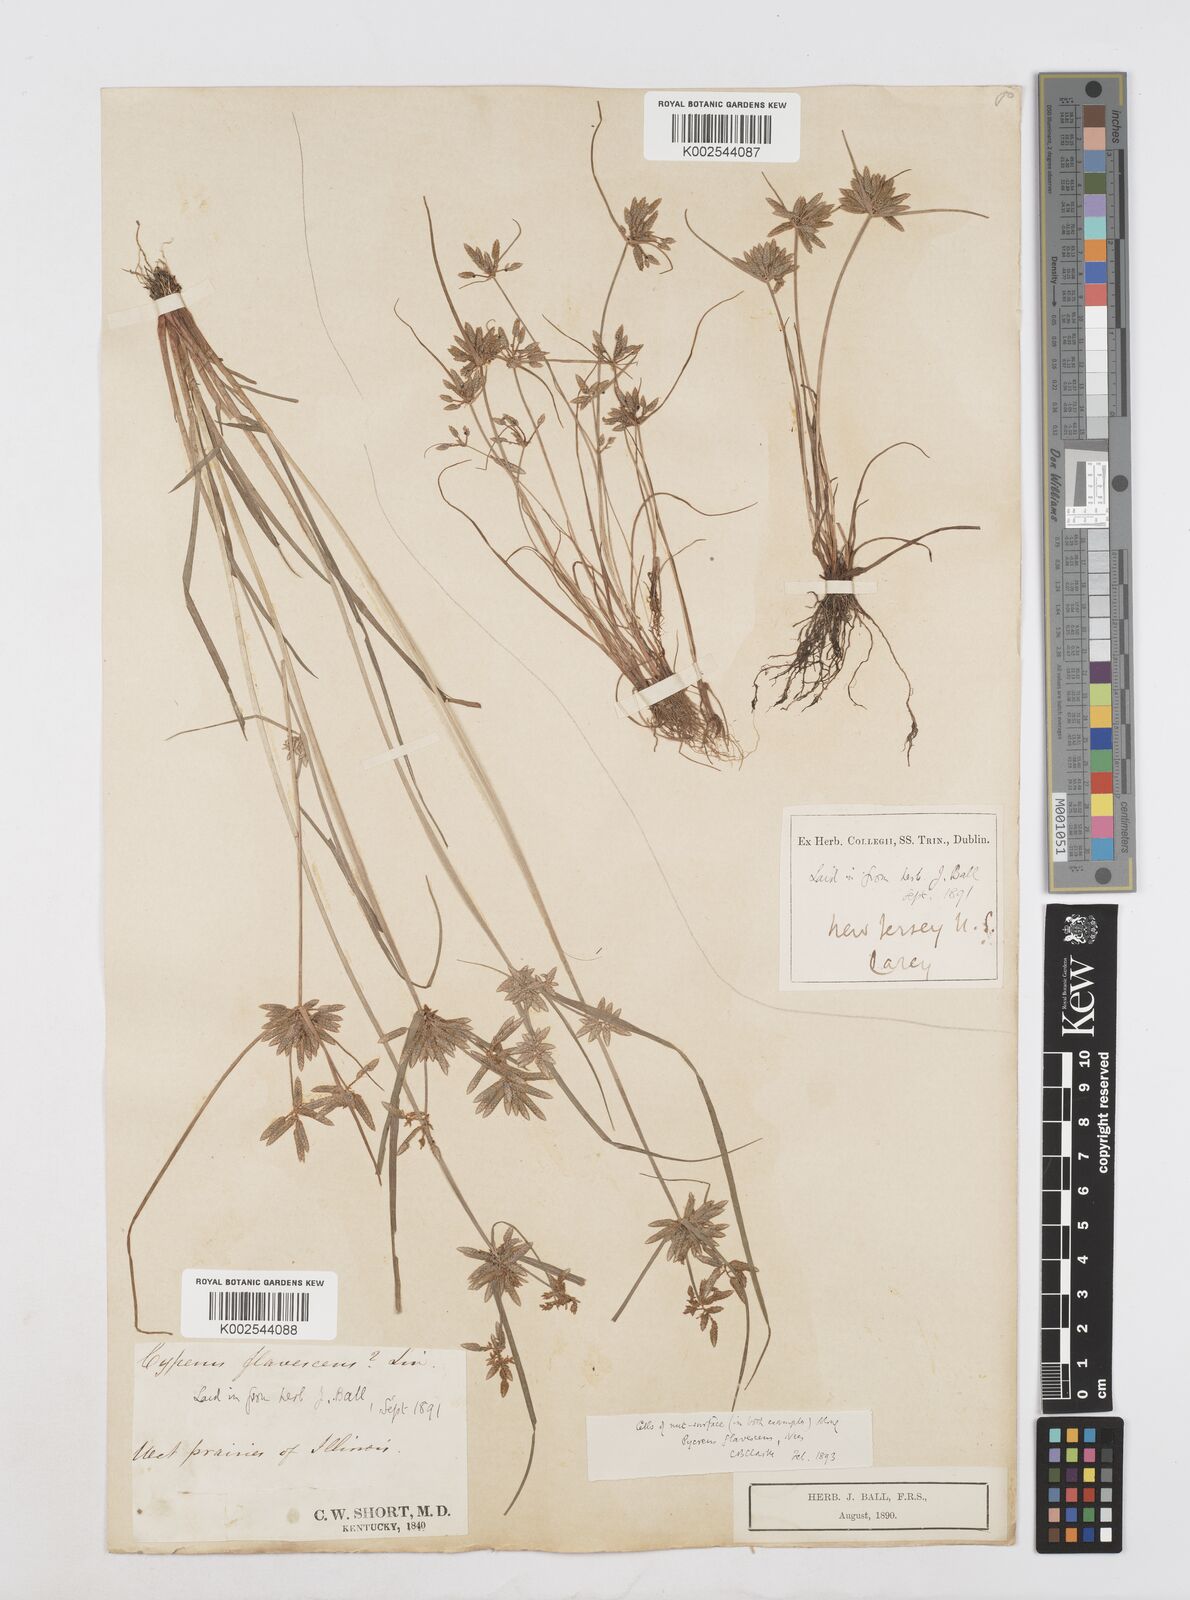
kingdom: Plantae
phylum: Tracheophyta
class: Liliopsida
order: Poales
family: Cyperaceae
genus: Cyperus
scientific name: Cyperus flavescens
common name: Yellow galingale
